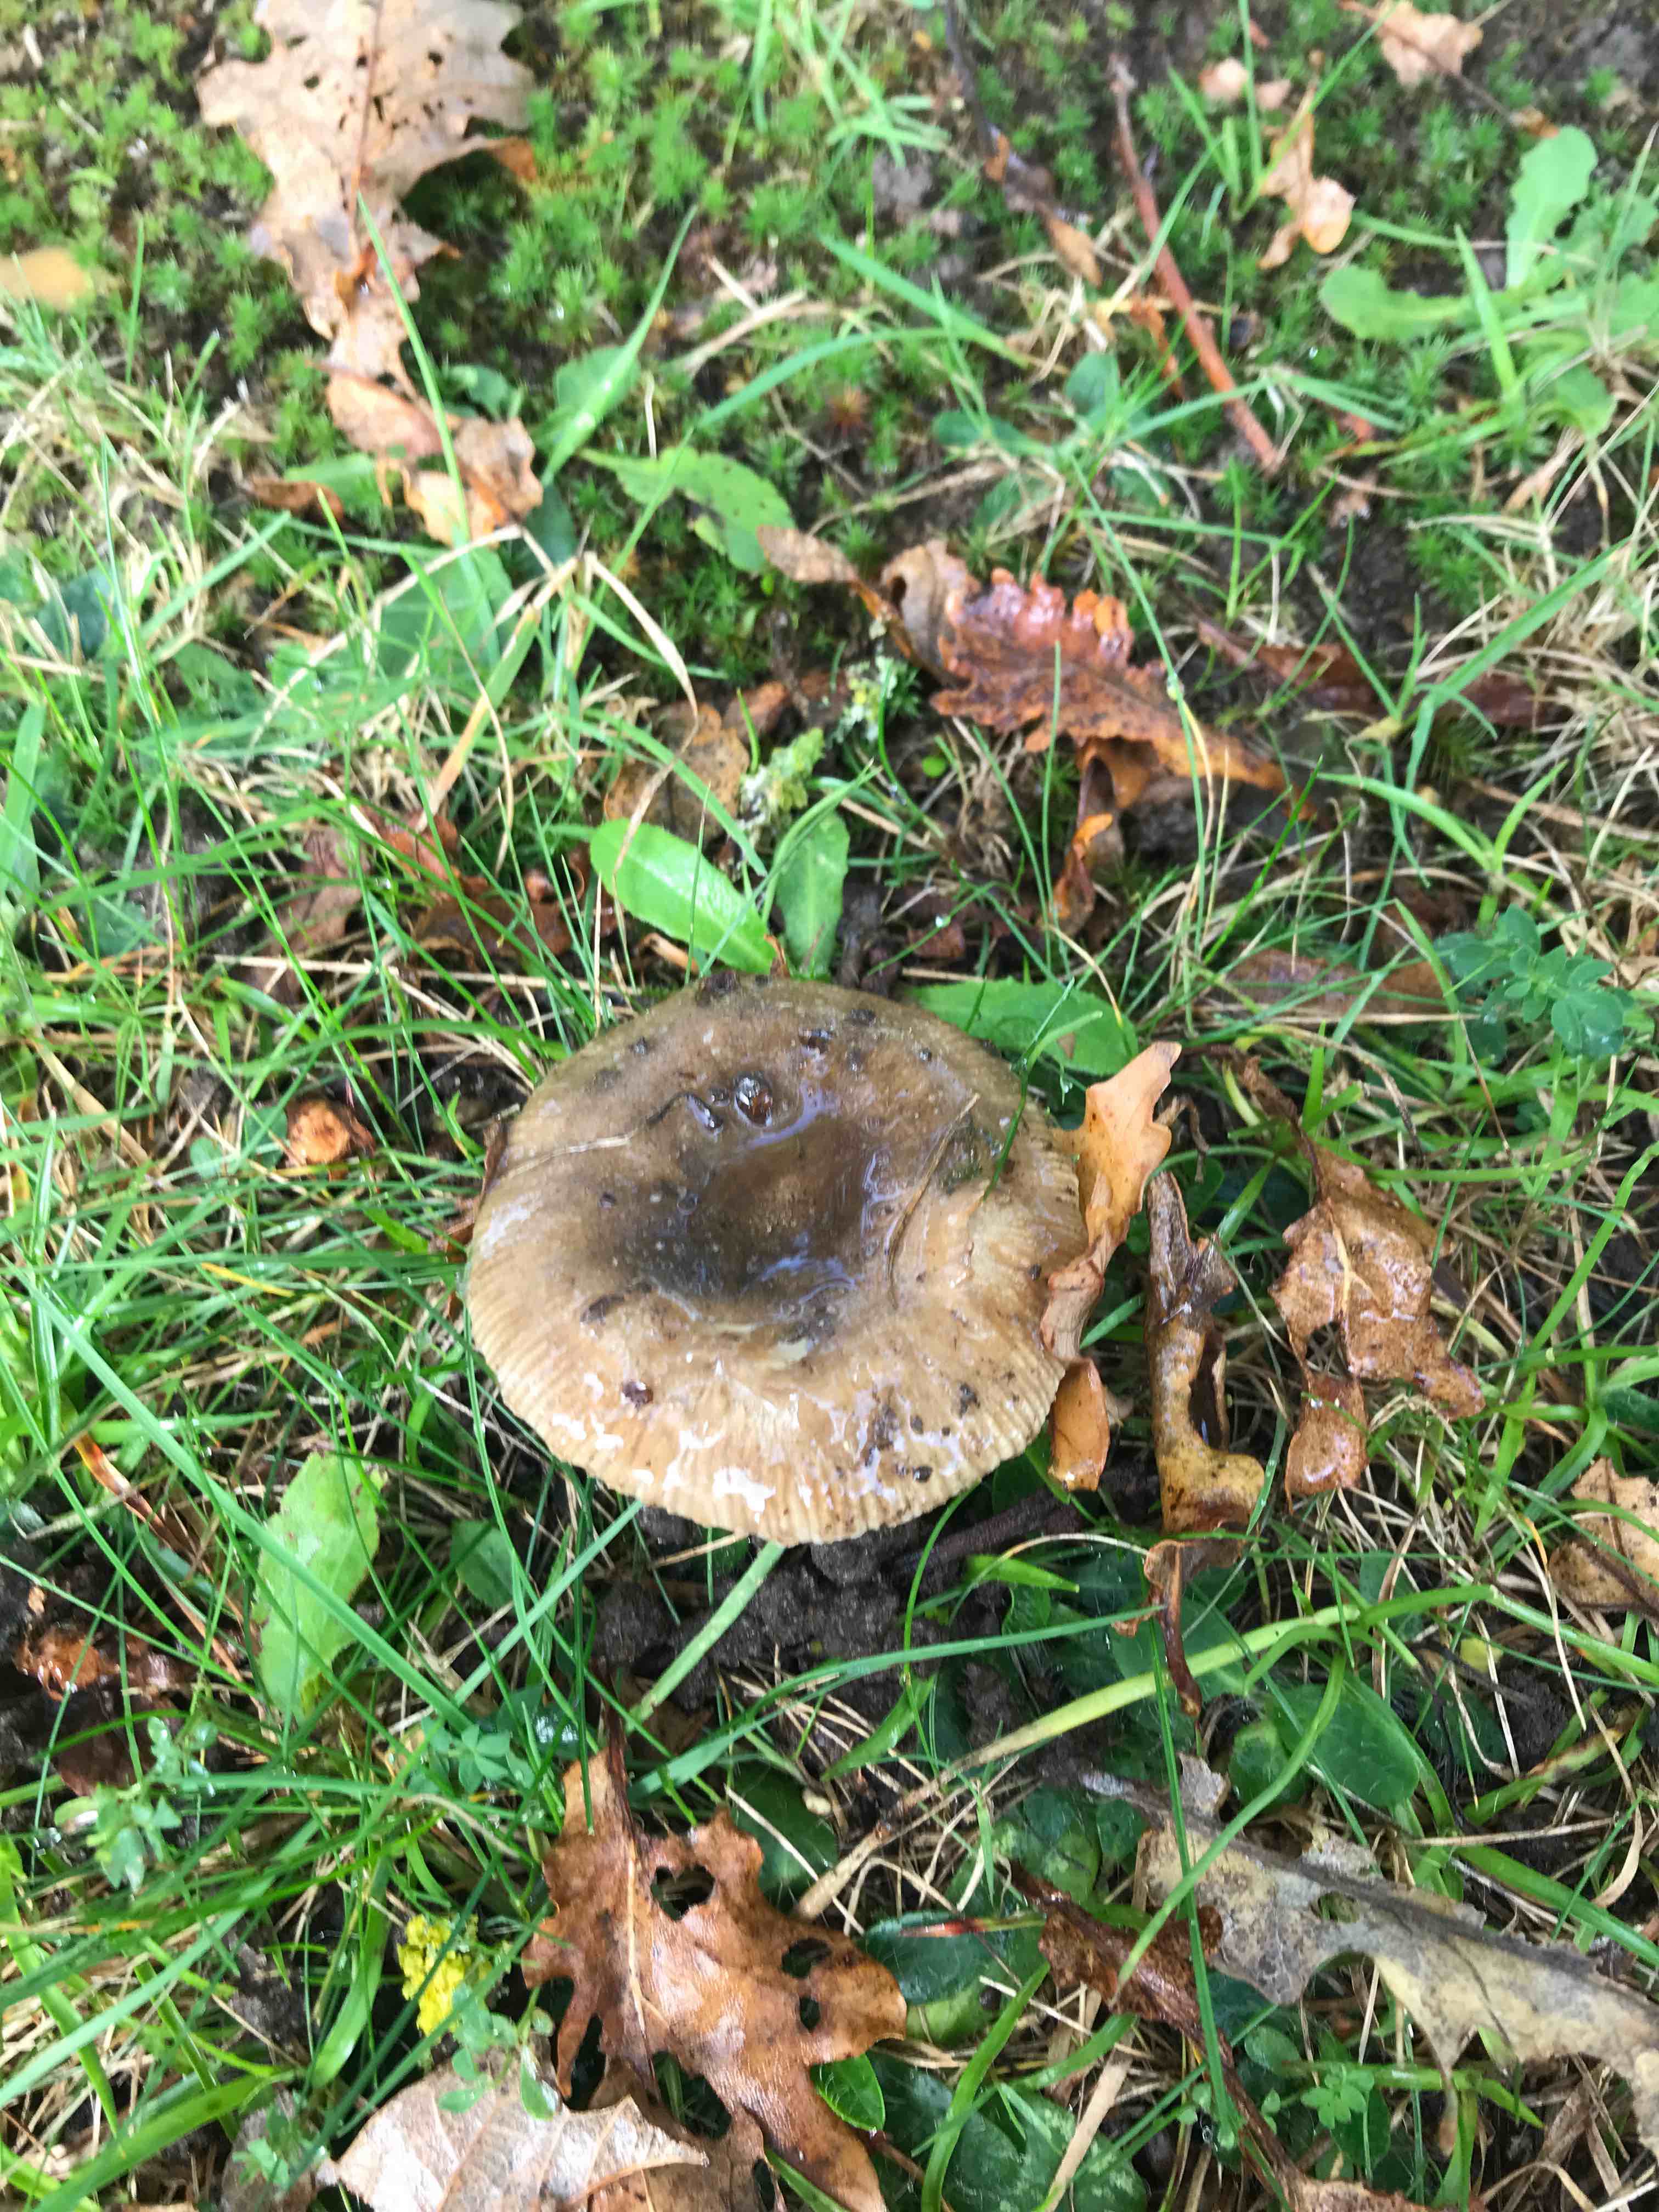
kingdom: Fungi
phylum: Basidiomycota
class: Agaricomycetes
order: Russulales
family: Russulaceae
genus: Russula
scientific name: Russula
